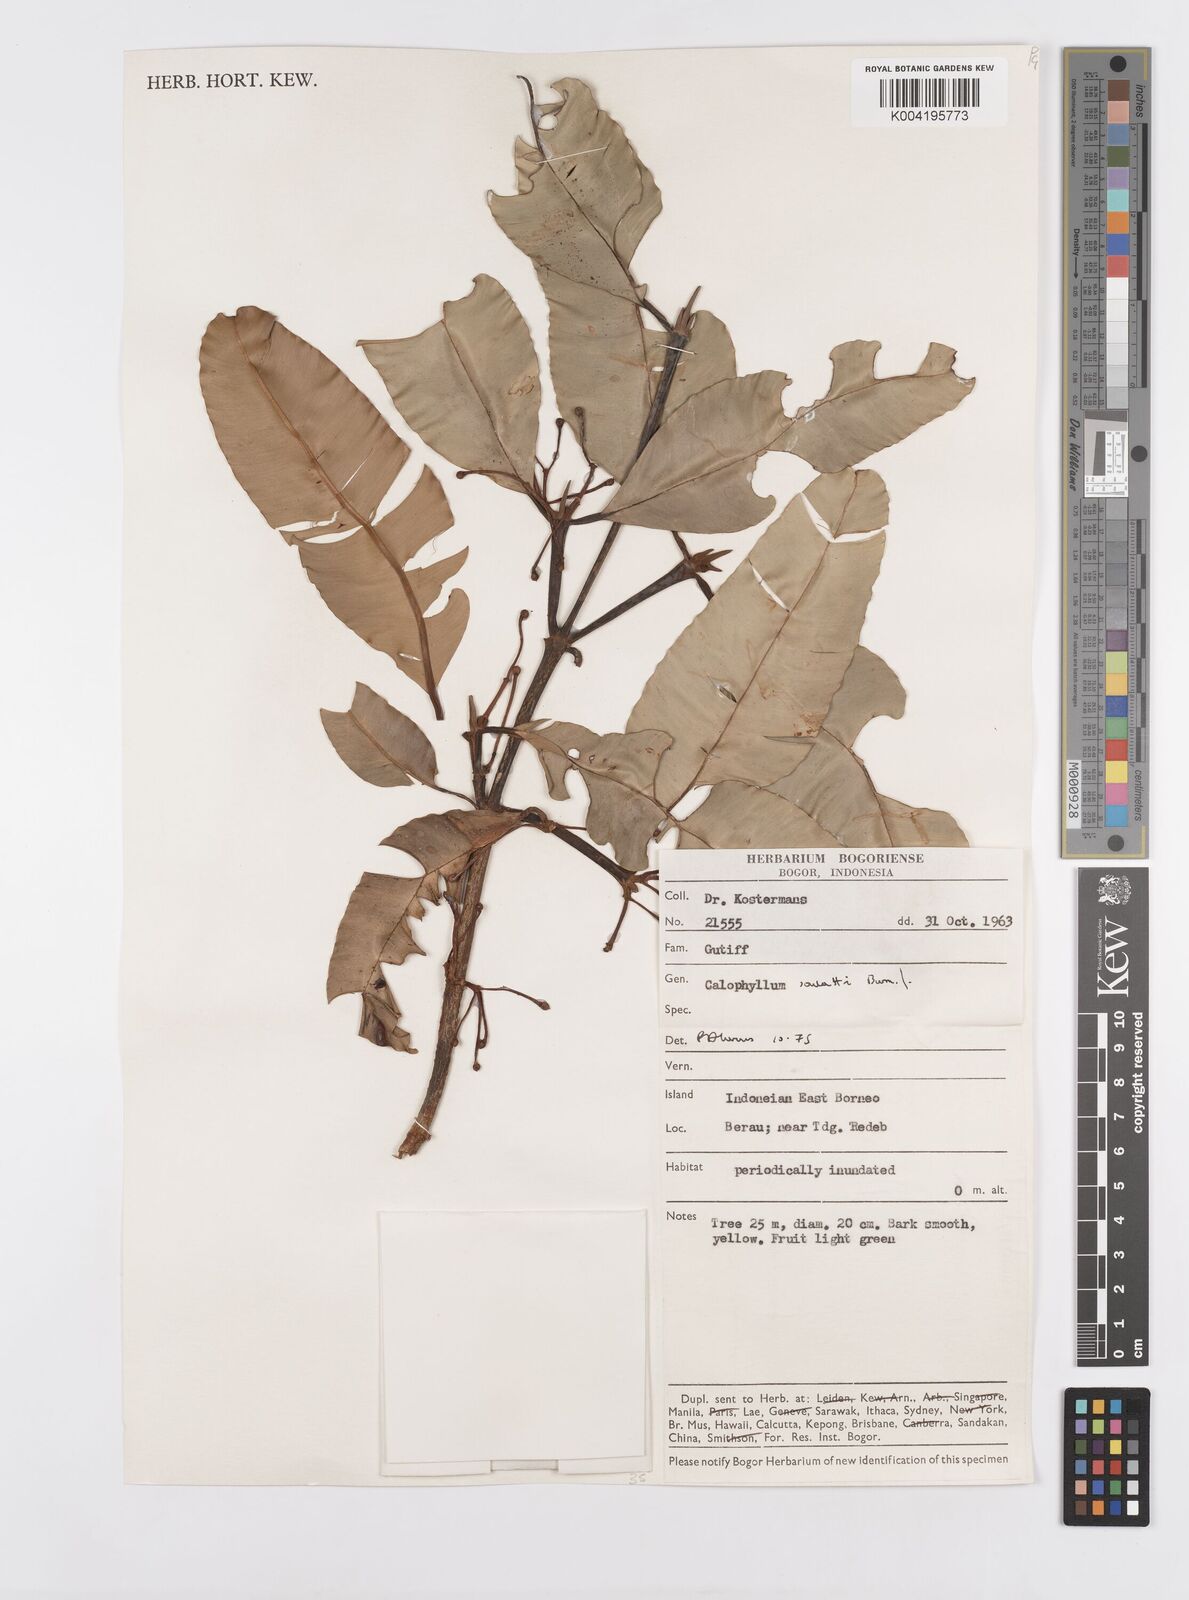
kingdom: Plantae
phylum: Tracheophyta
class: Magnoliopsida
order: Malpighiales
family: Calophyllaceae
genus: Calophyllum
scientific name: Calophyllum soulattri
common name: Bitangoor boonot
